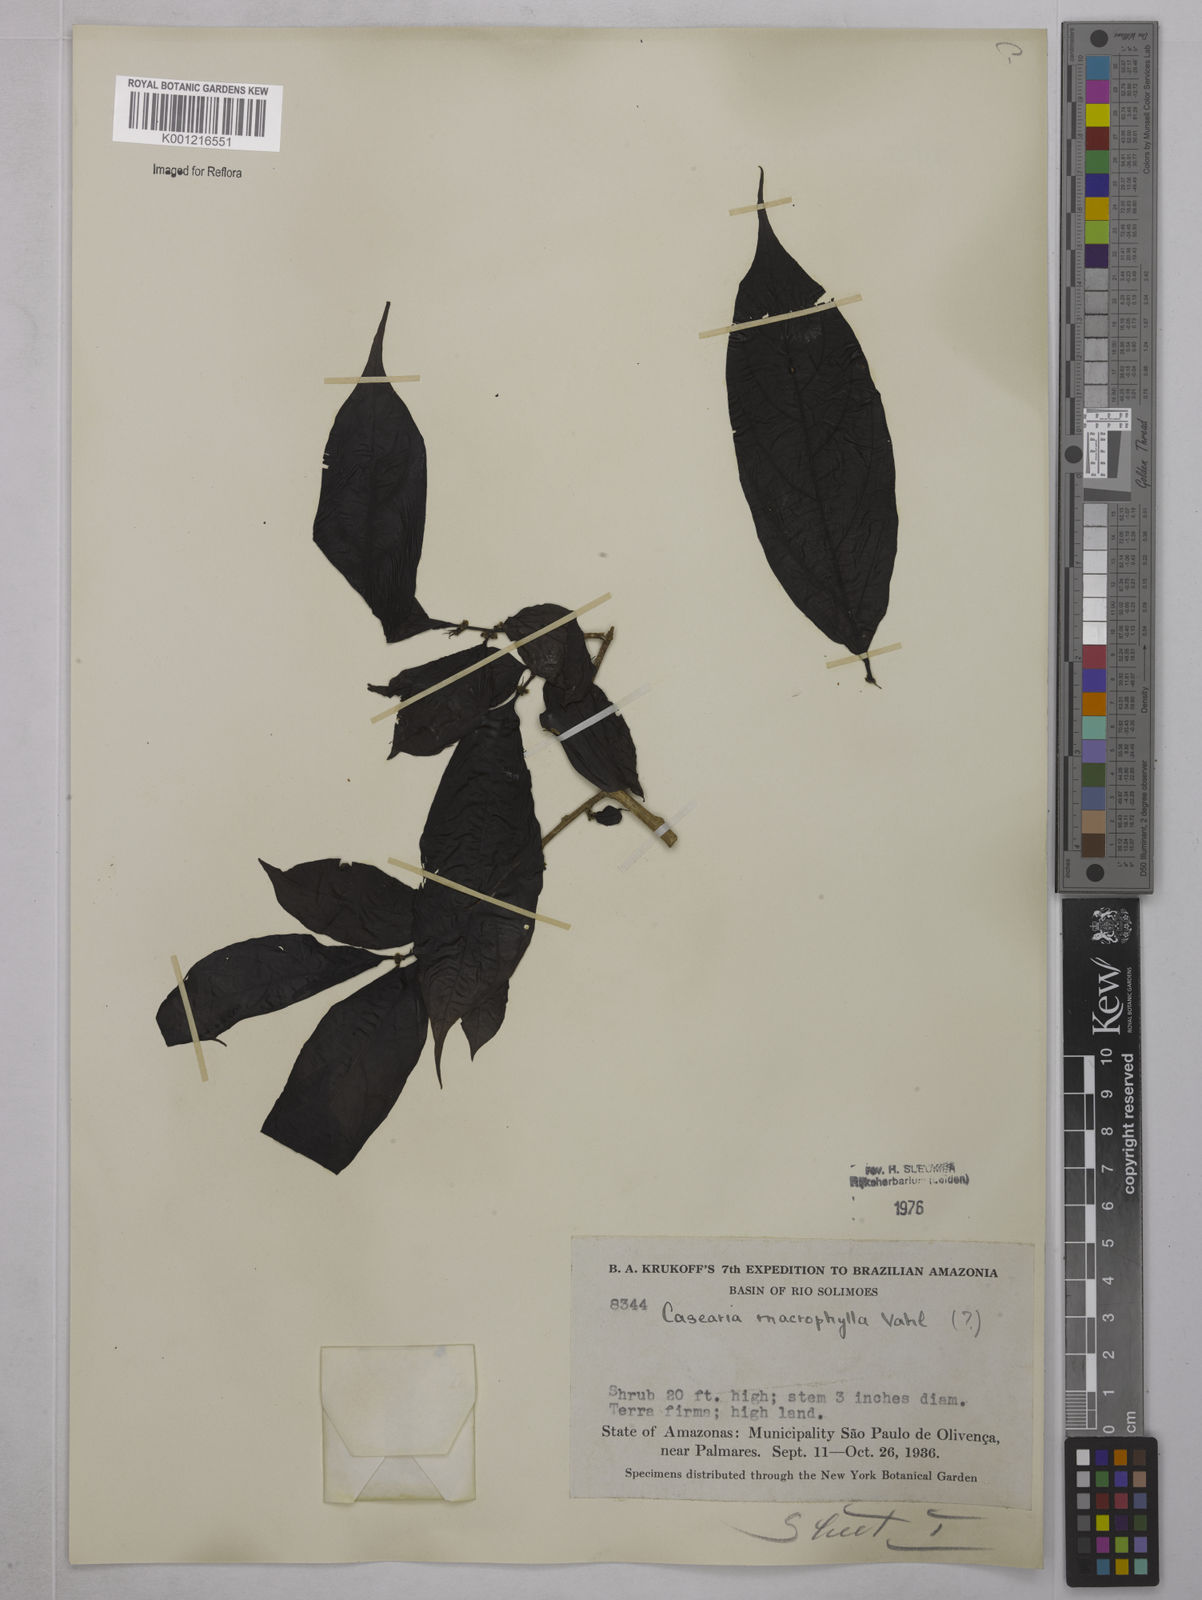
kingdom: Plantae
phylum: Tracheophyta
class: Magnoliopsida
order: Malpighiales
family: Salicaceae
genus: Casearia
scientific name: Casearia pitumba
